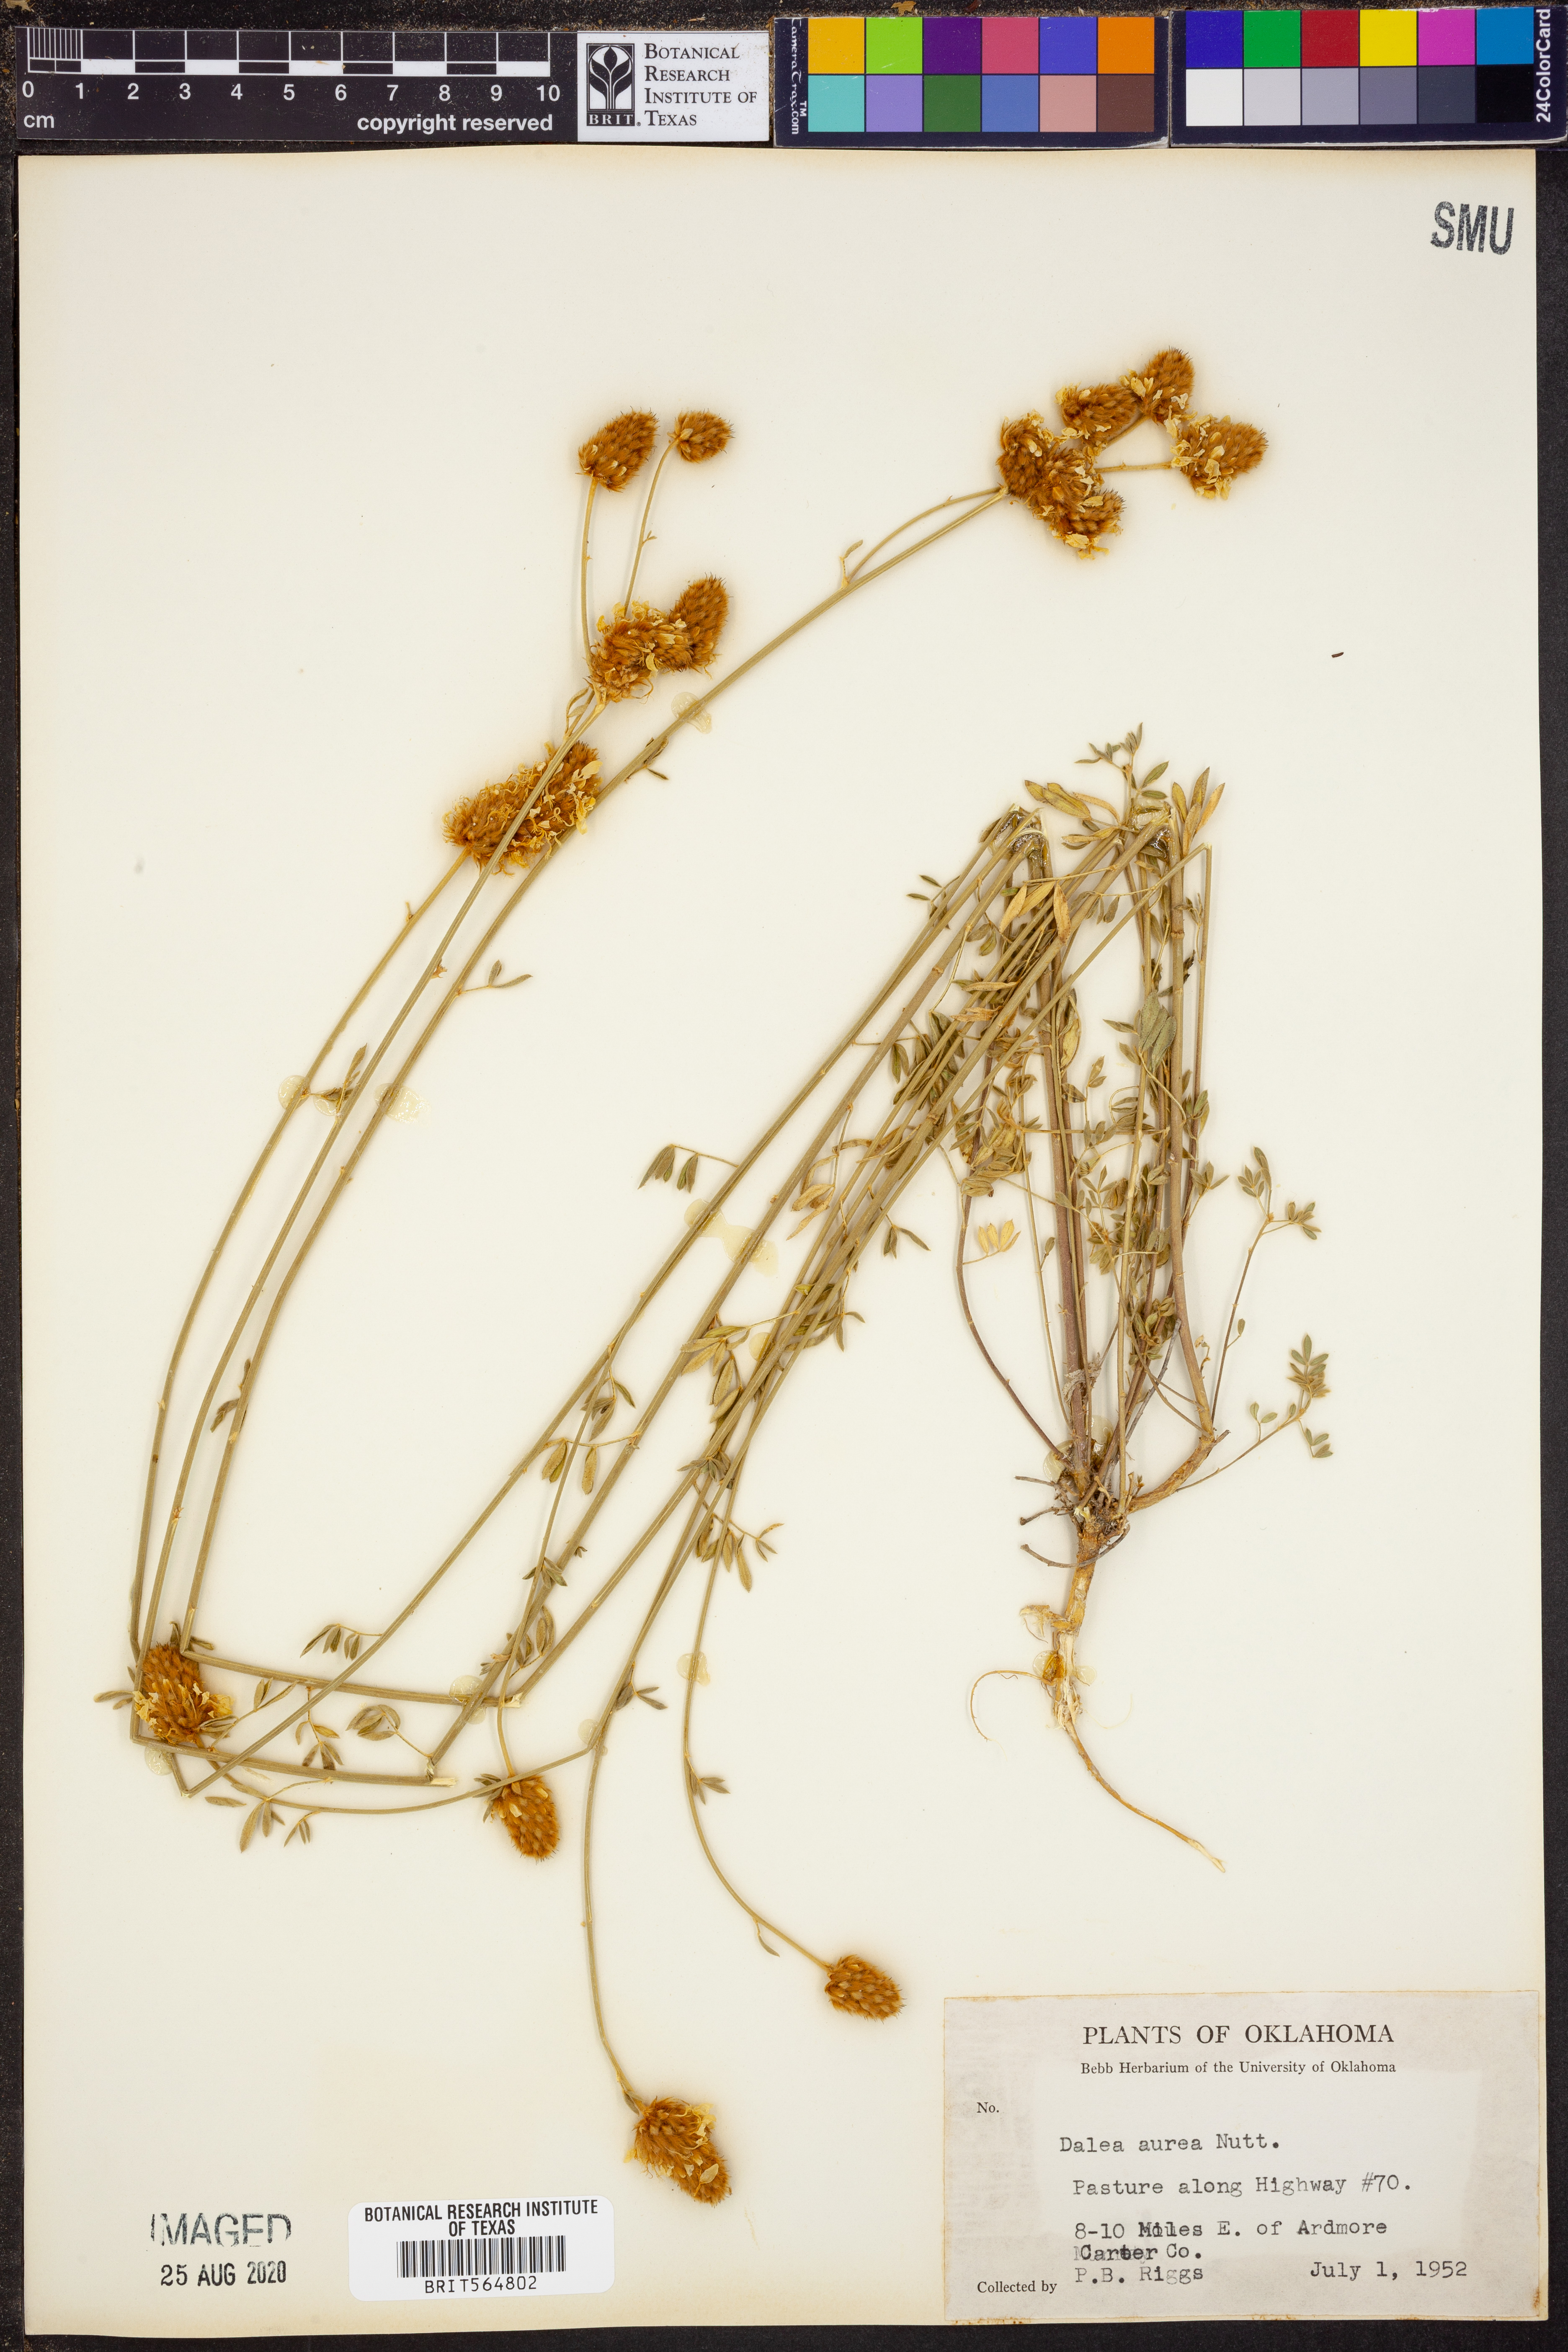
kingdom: Plantae
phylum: Tracheophyta
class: Magnoliopsida
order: Fabales
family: Fabaceae
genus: Dalea
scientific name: Dalea aurea
